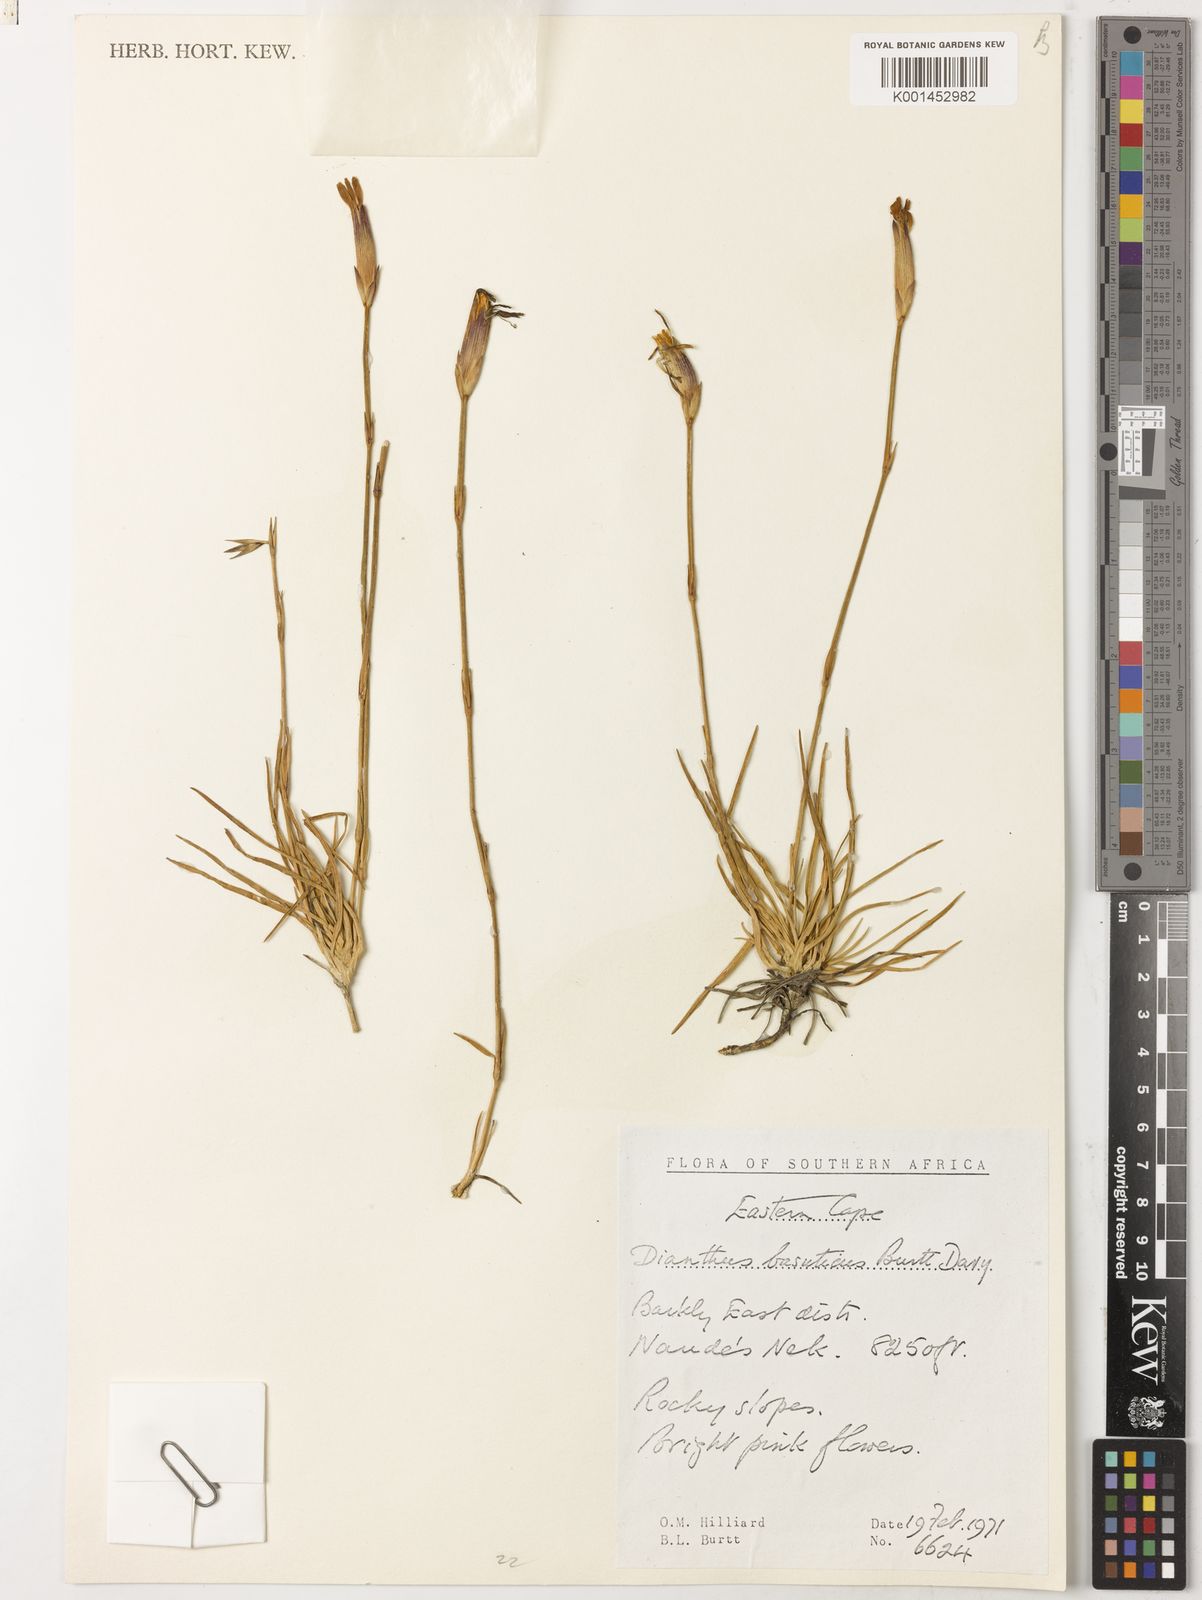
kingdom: Plantae
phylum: Tracheophyta
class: Magnoliopsida
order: Caryophyllales
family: Caryophyllaceae
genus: Dianthus
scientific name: Dianthus basuticus
